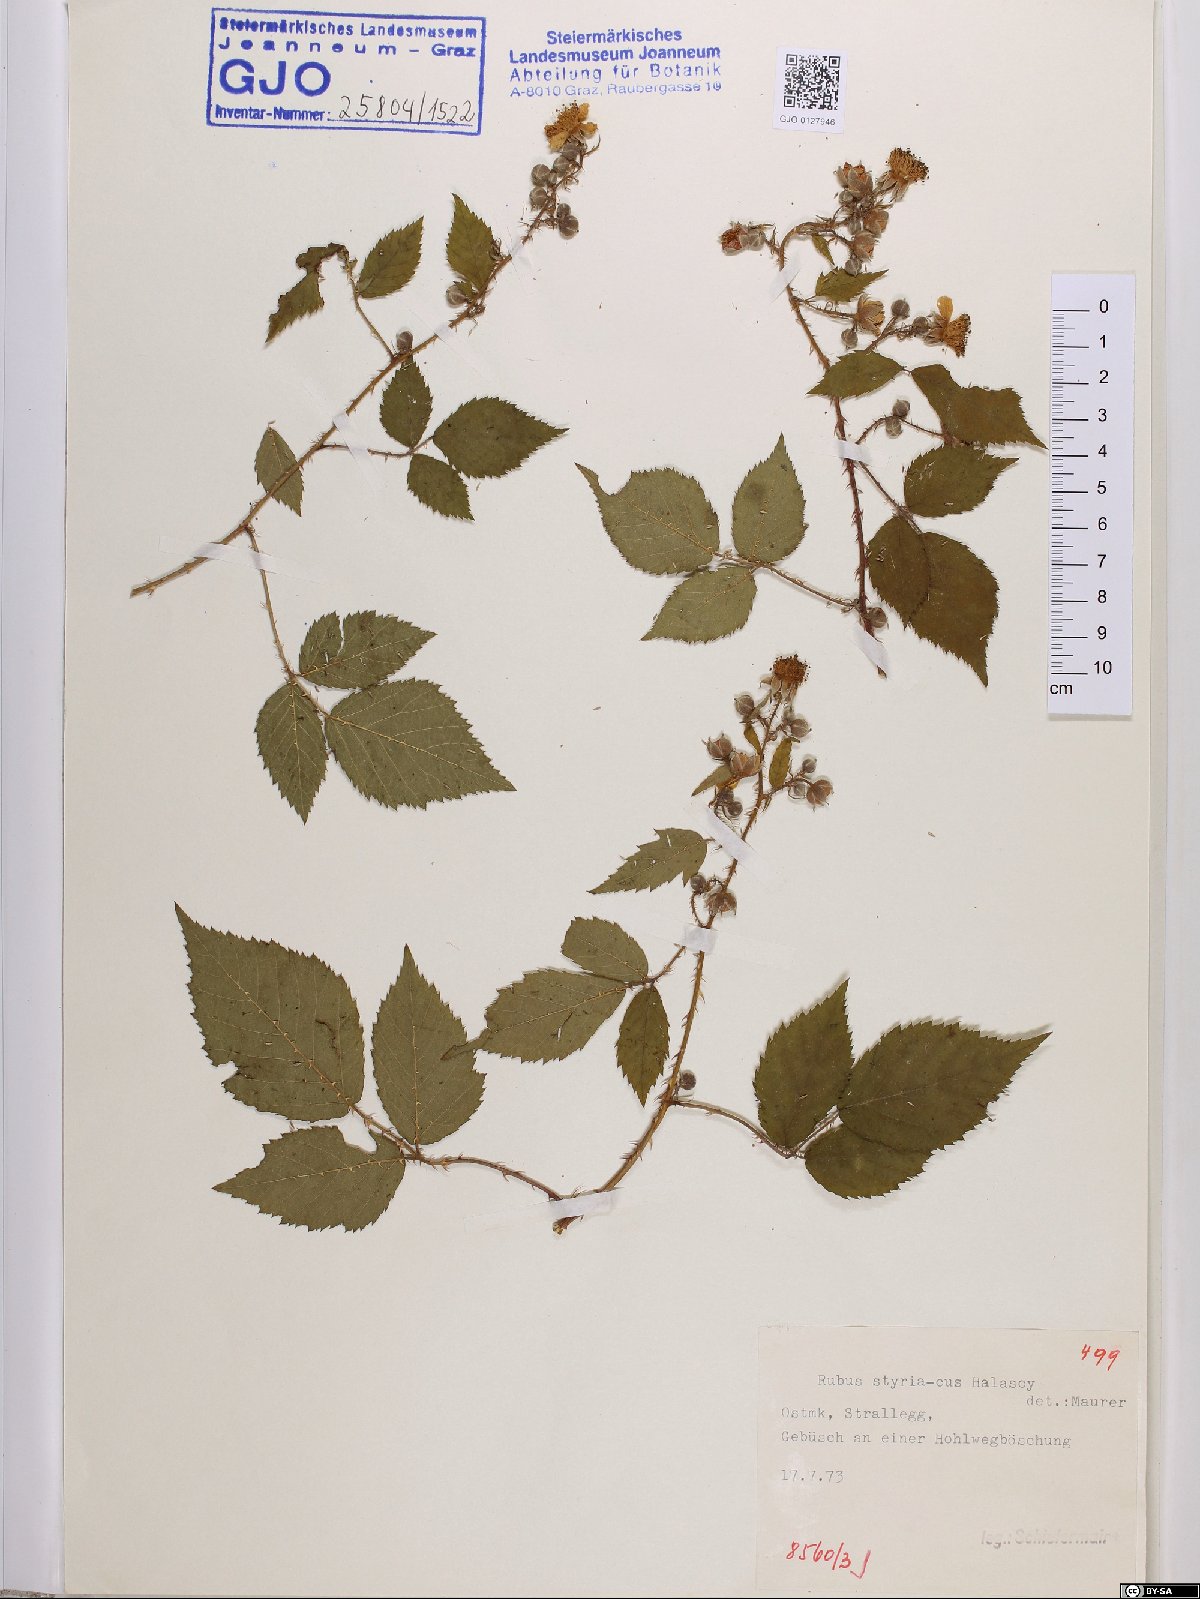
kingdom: Plantae
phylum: Tracheophyta
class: Magnoliopsida
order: Rosales
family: Rosaceae
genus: Rubus
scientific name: Rubus styriacus
